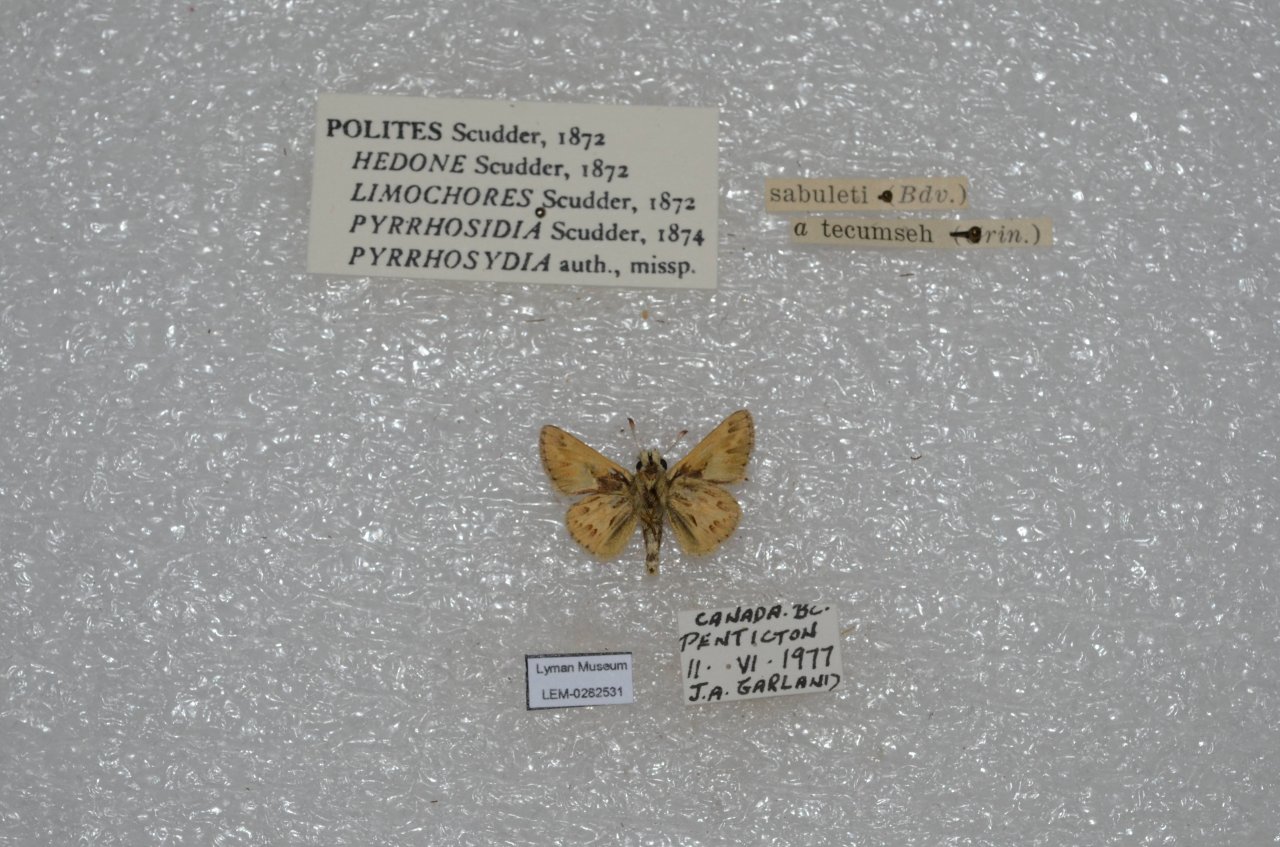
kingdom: Animalia
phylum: Arthropoda
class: Insecta
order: Lepidoptera
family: Hesperiidae
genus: Polites
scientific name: Polites sabuleti
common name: Sandhill Skipper
